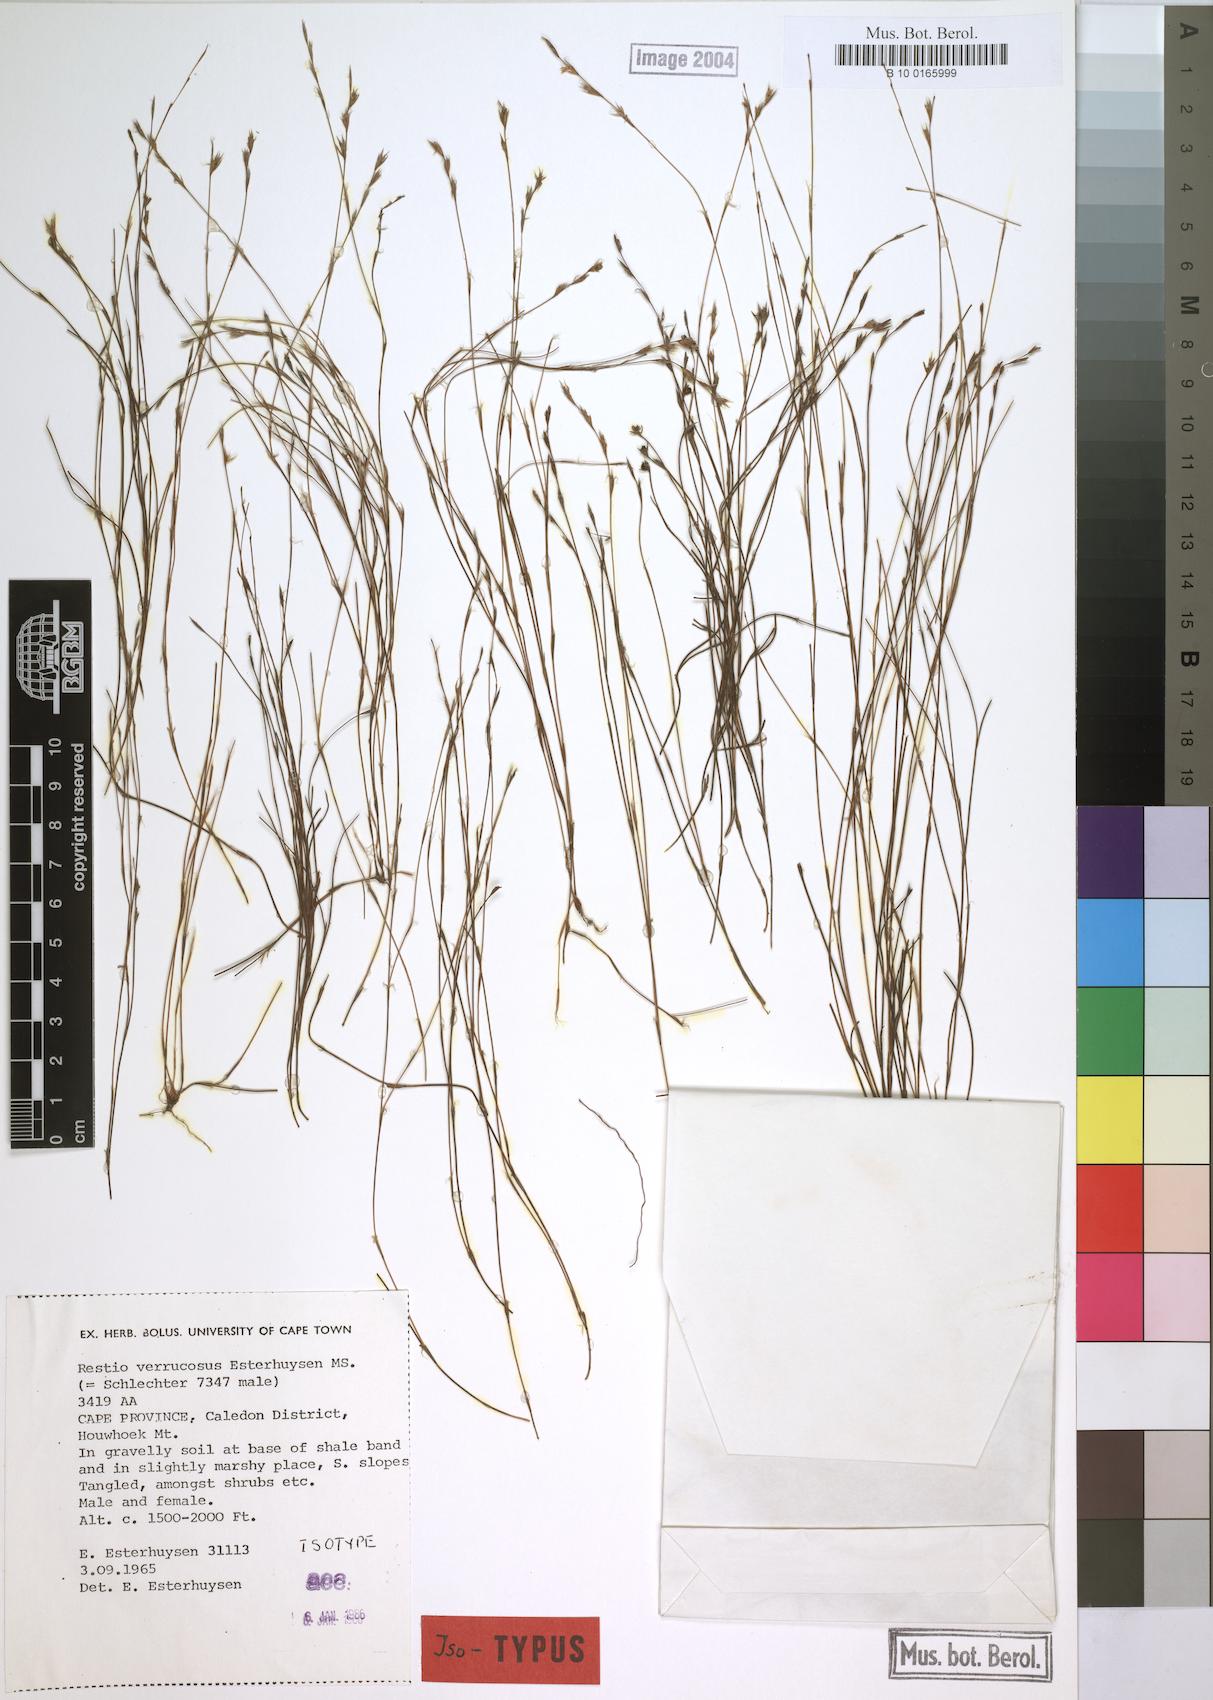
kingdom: Plantae
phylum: Tracheophyta
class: Liliopsida
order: Poales
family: Restionaceae
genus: Restio
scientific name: Restio verrucosus
